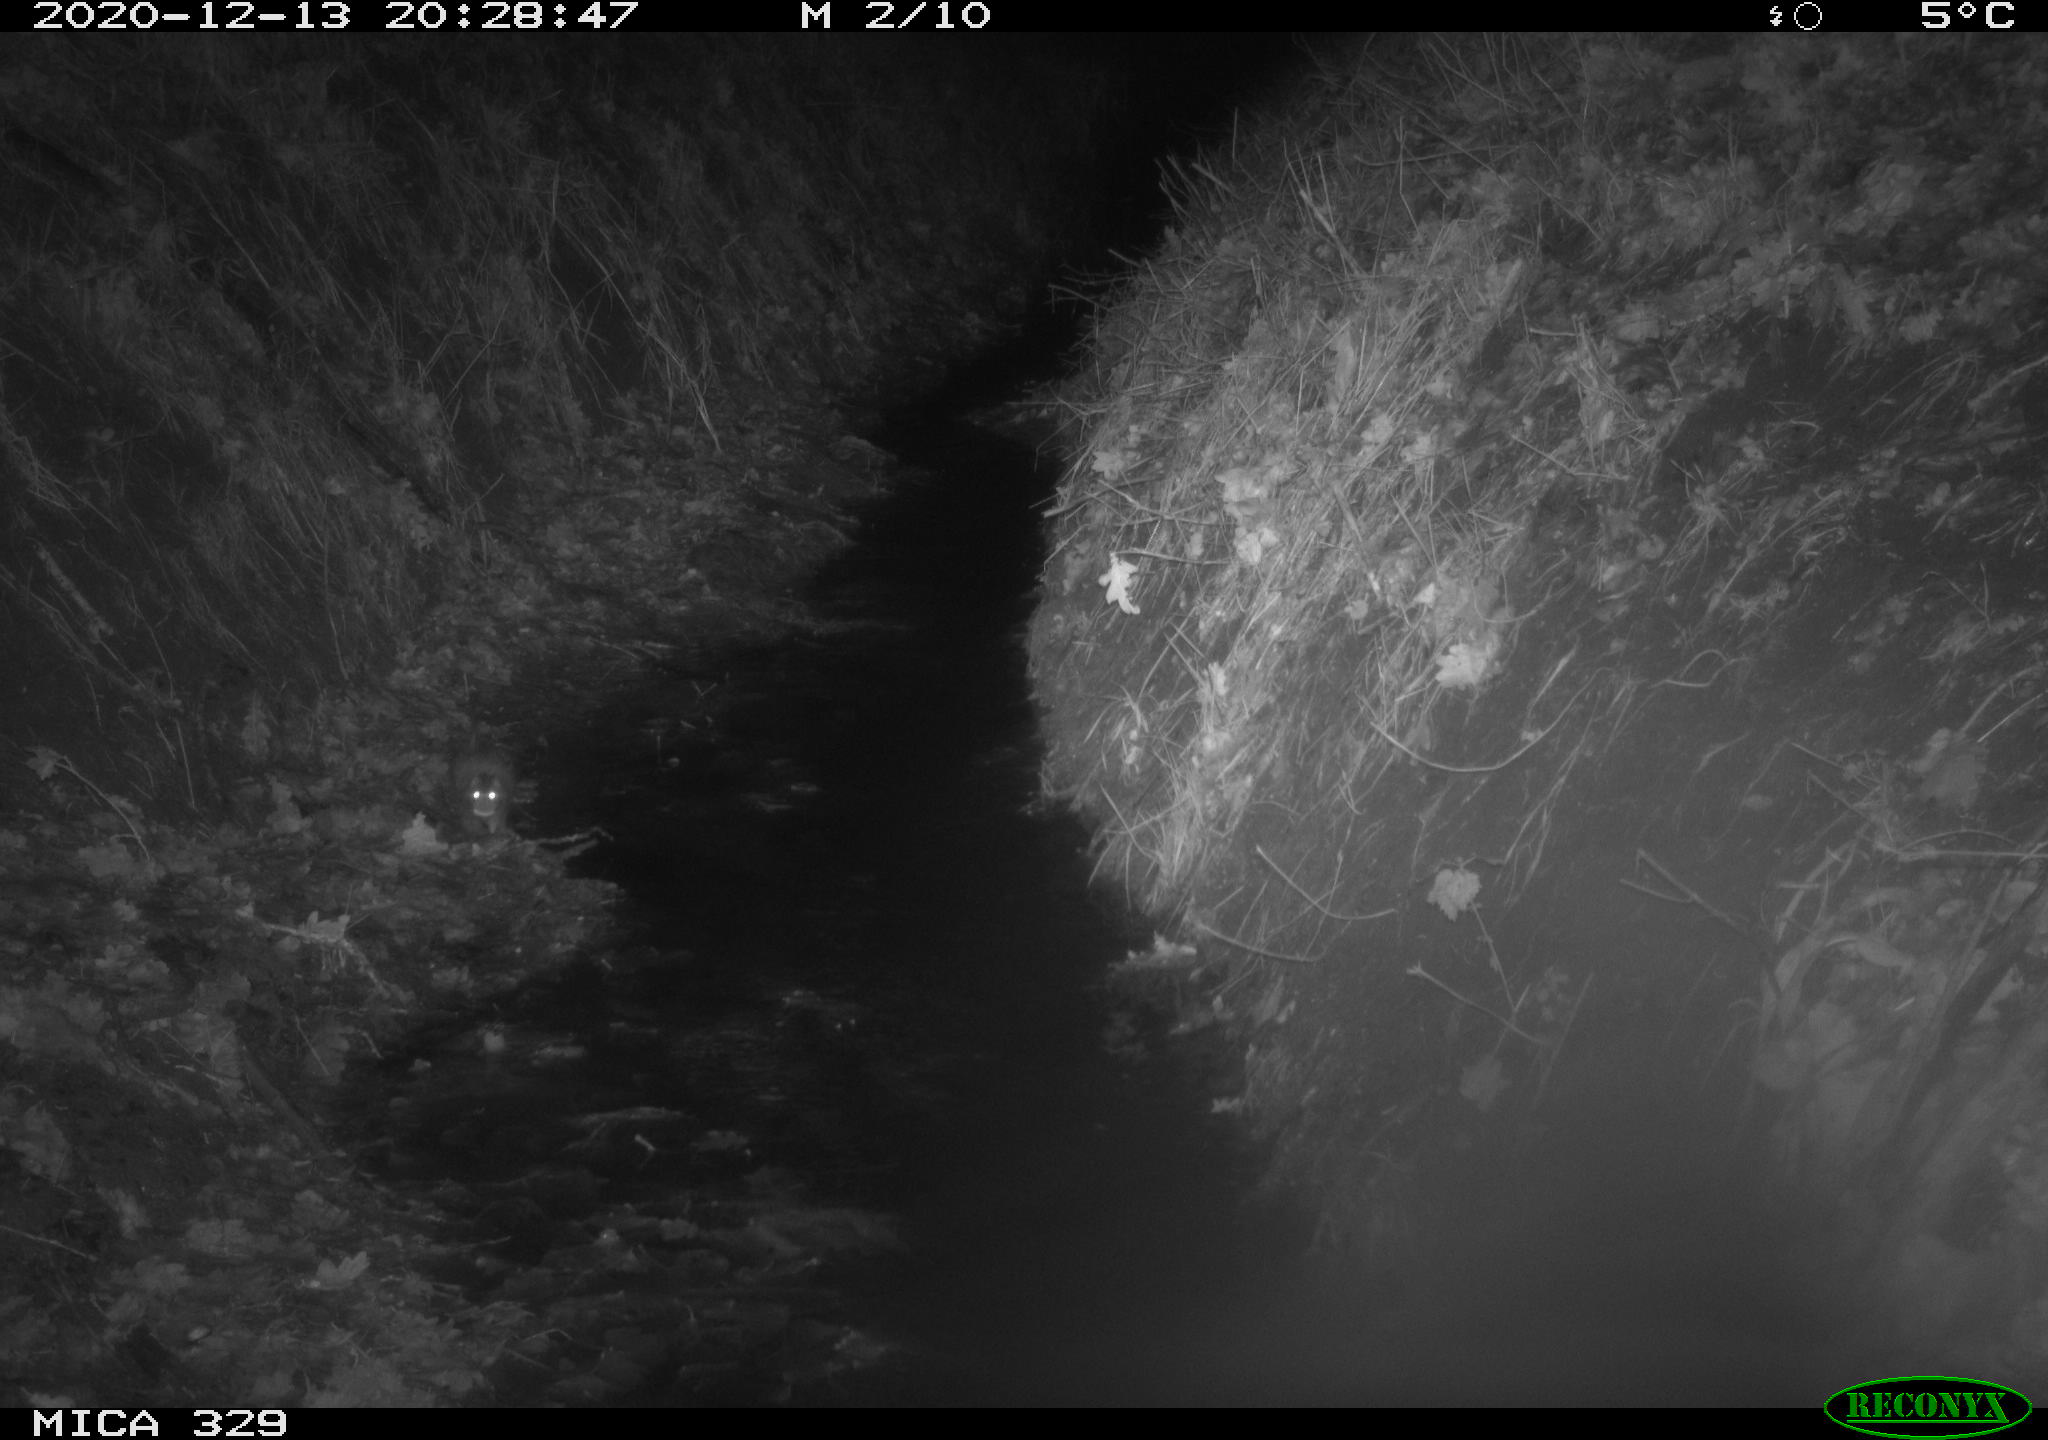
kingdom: Animalia
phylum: Chordata
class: Mammalia
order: Rodentia
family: Muridae
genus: Rattus
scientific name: Rattus norvegicus
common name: Brown rat
